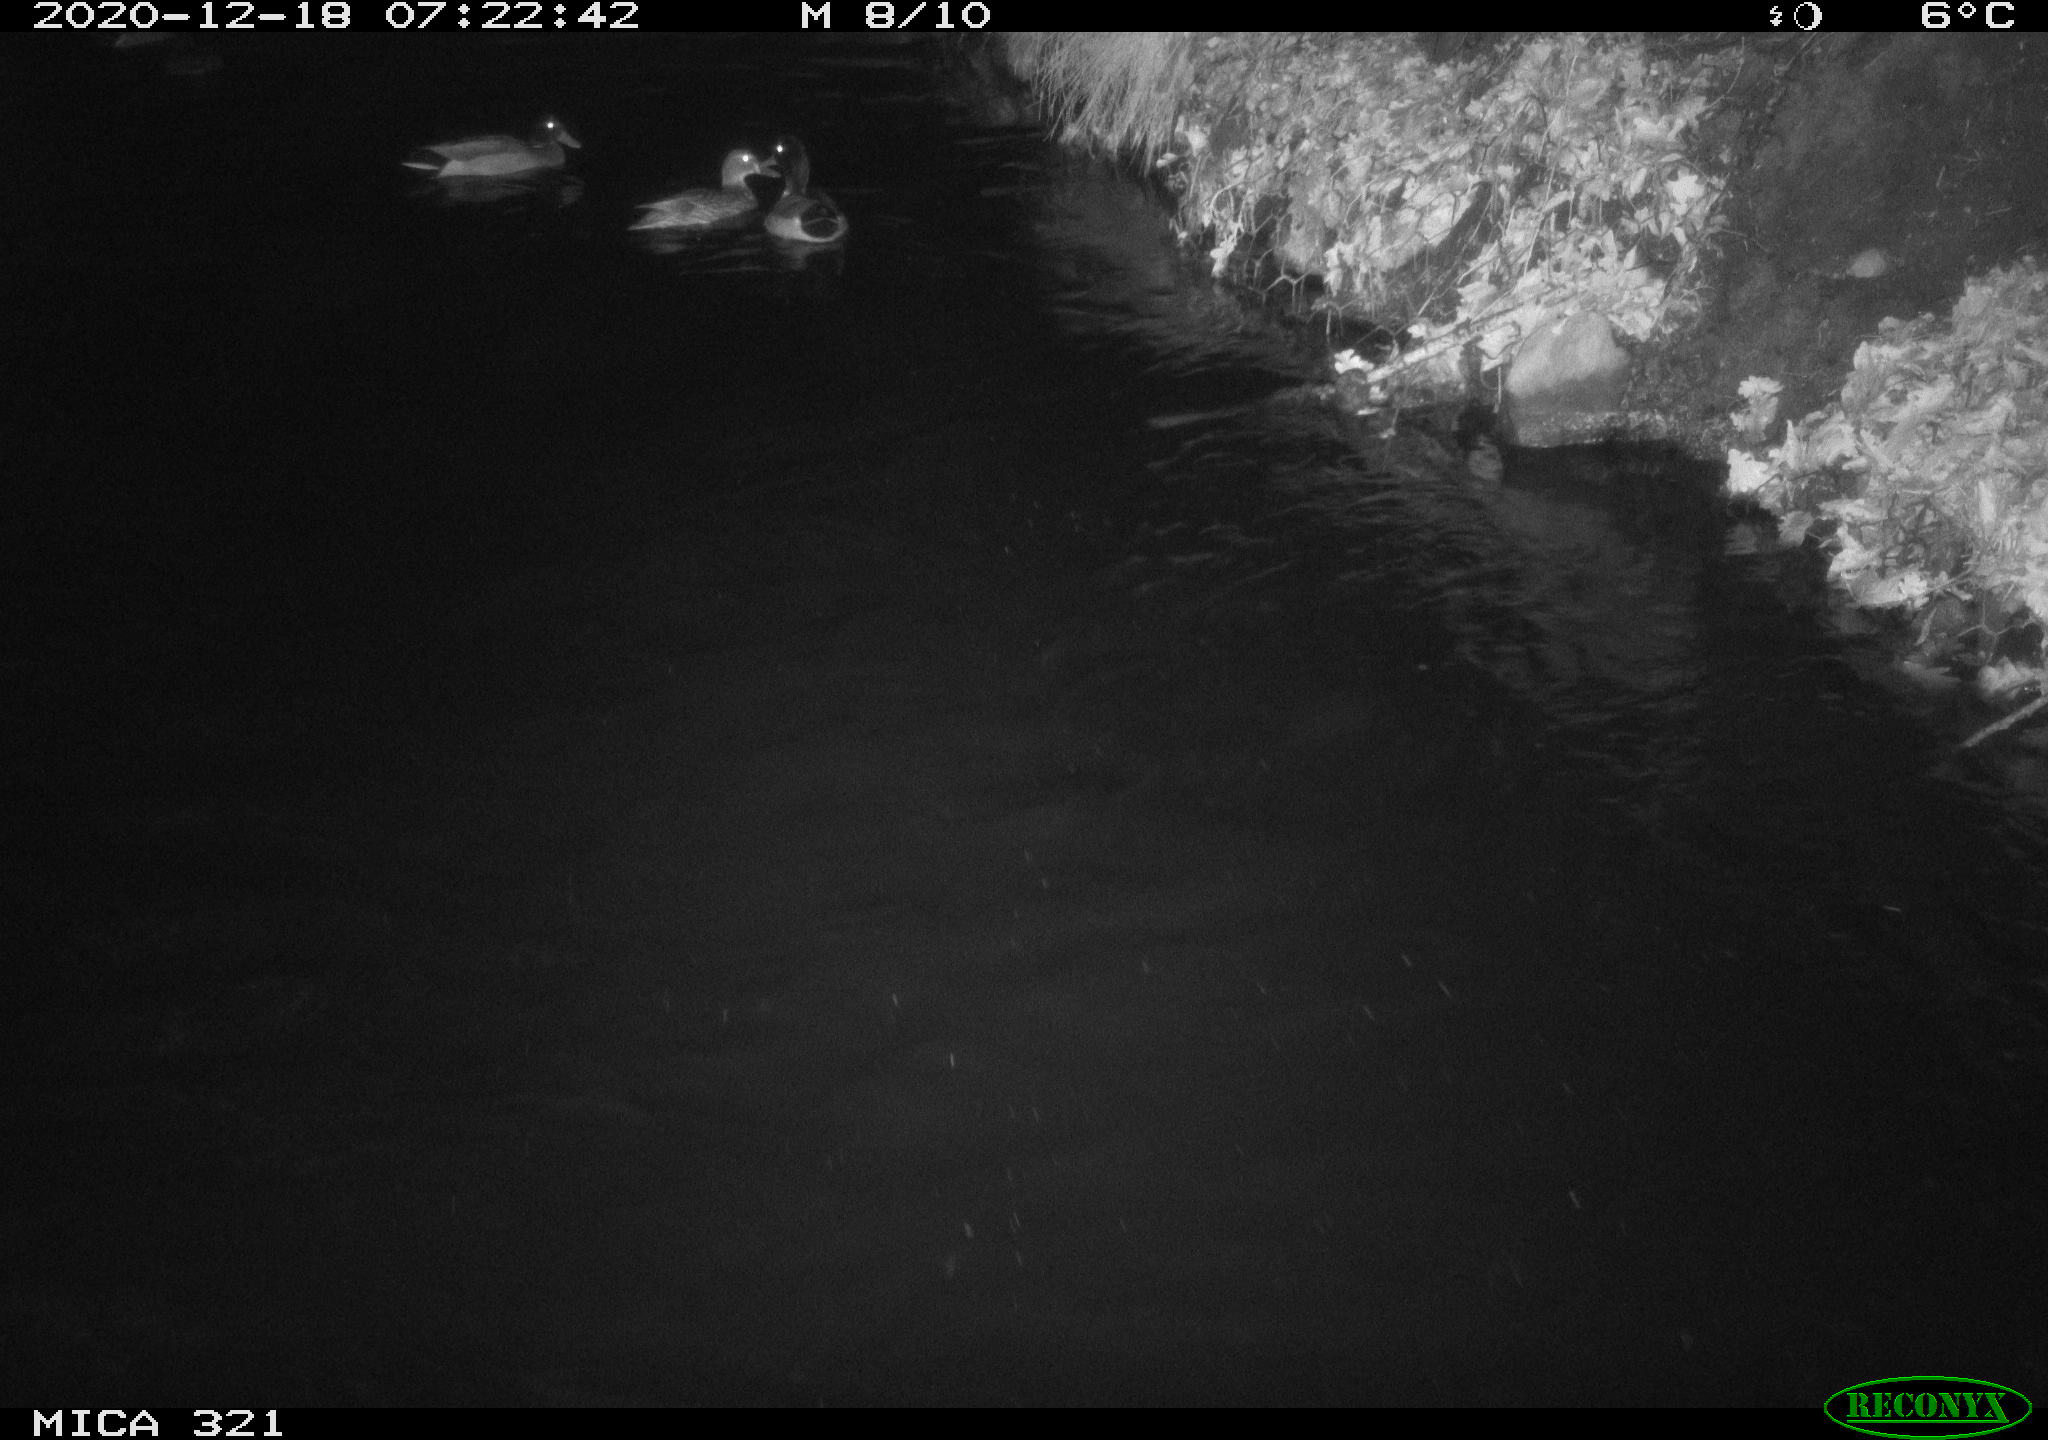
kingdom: Animalia
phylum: Chordata
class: Aves
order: Anseriformes
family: Anatidae
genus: Anas
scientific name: Anas platyrhynchos
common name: Mallard
